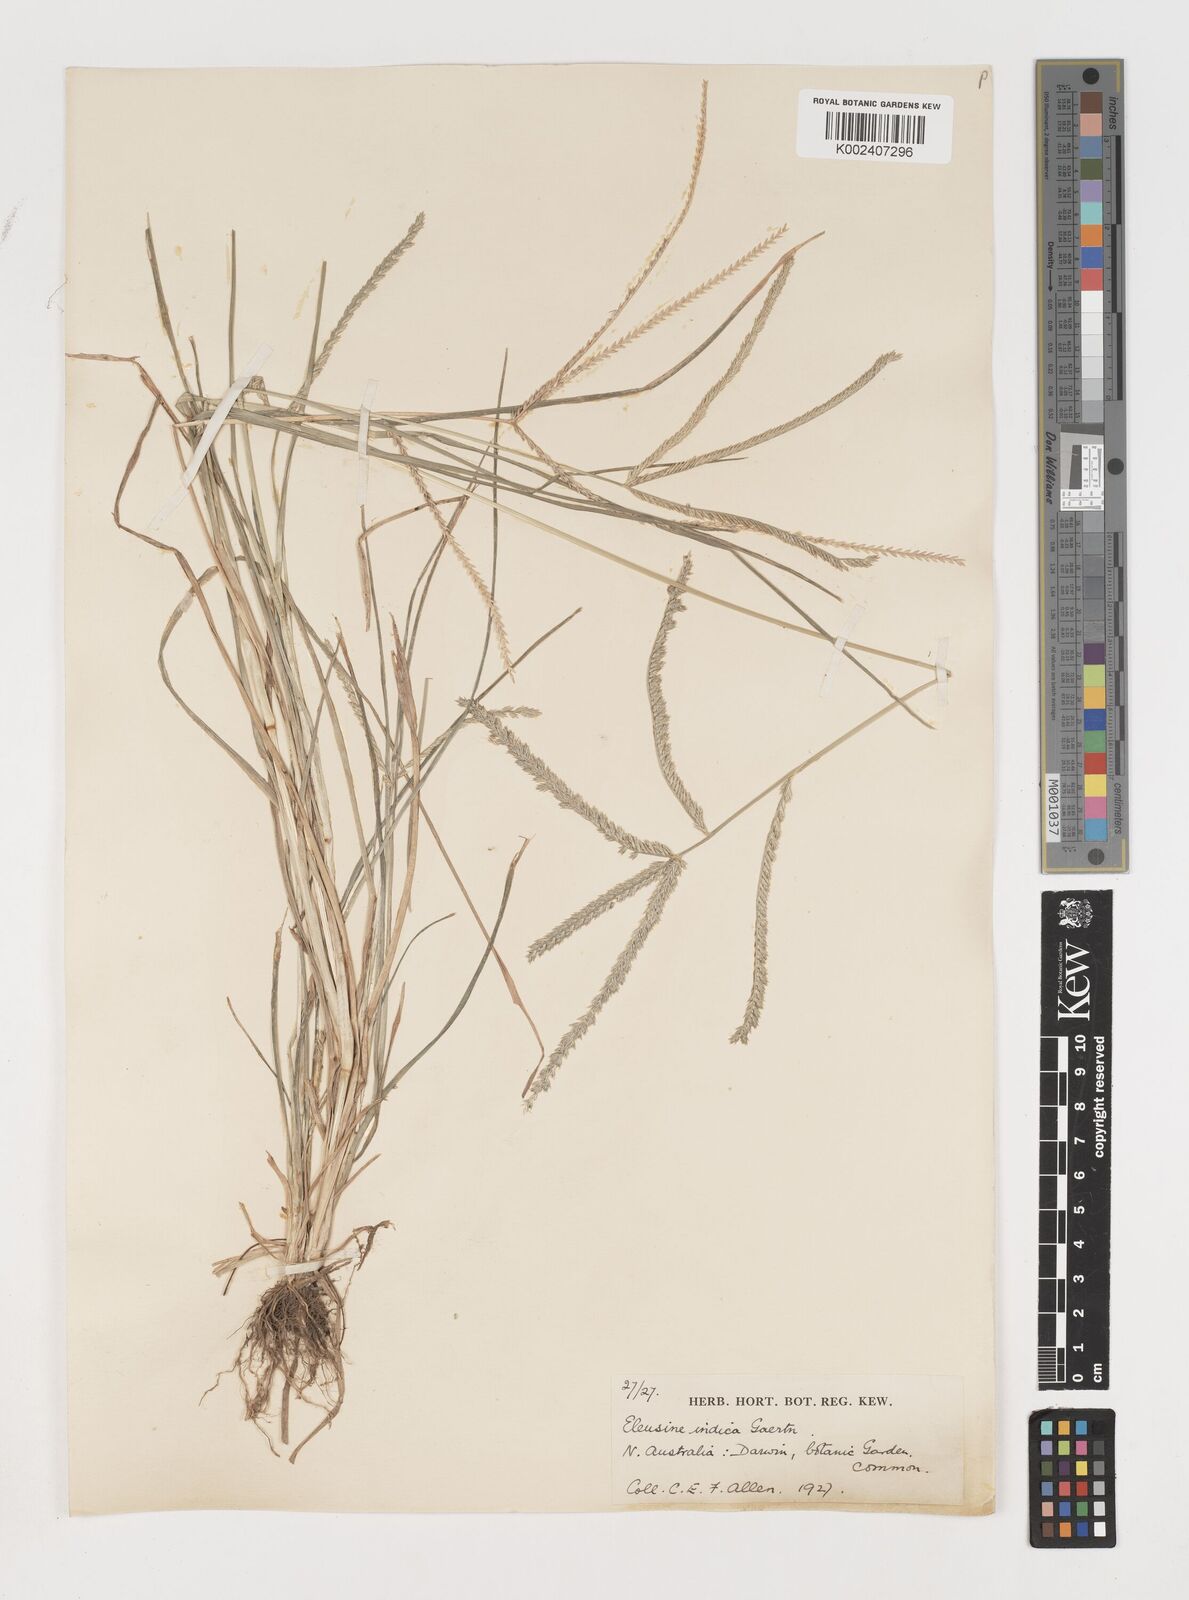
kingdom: Plantae
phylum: Tracheophyta
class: Liliopsida
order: Poales
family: Poaceae
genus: Eleusine
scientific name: Eleusine indica
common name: Yard-grass
